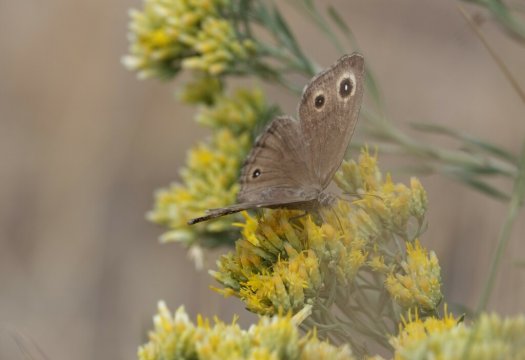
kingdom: Animalia
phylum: Arthropoda
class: Insecta
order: Lepidoptera
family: Nymphalidae
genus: Cercyonis
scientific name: Cercyonis sthenele
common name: Great Basin Wood-Nymph
